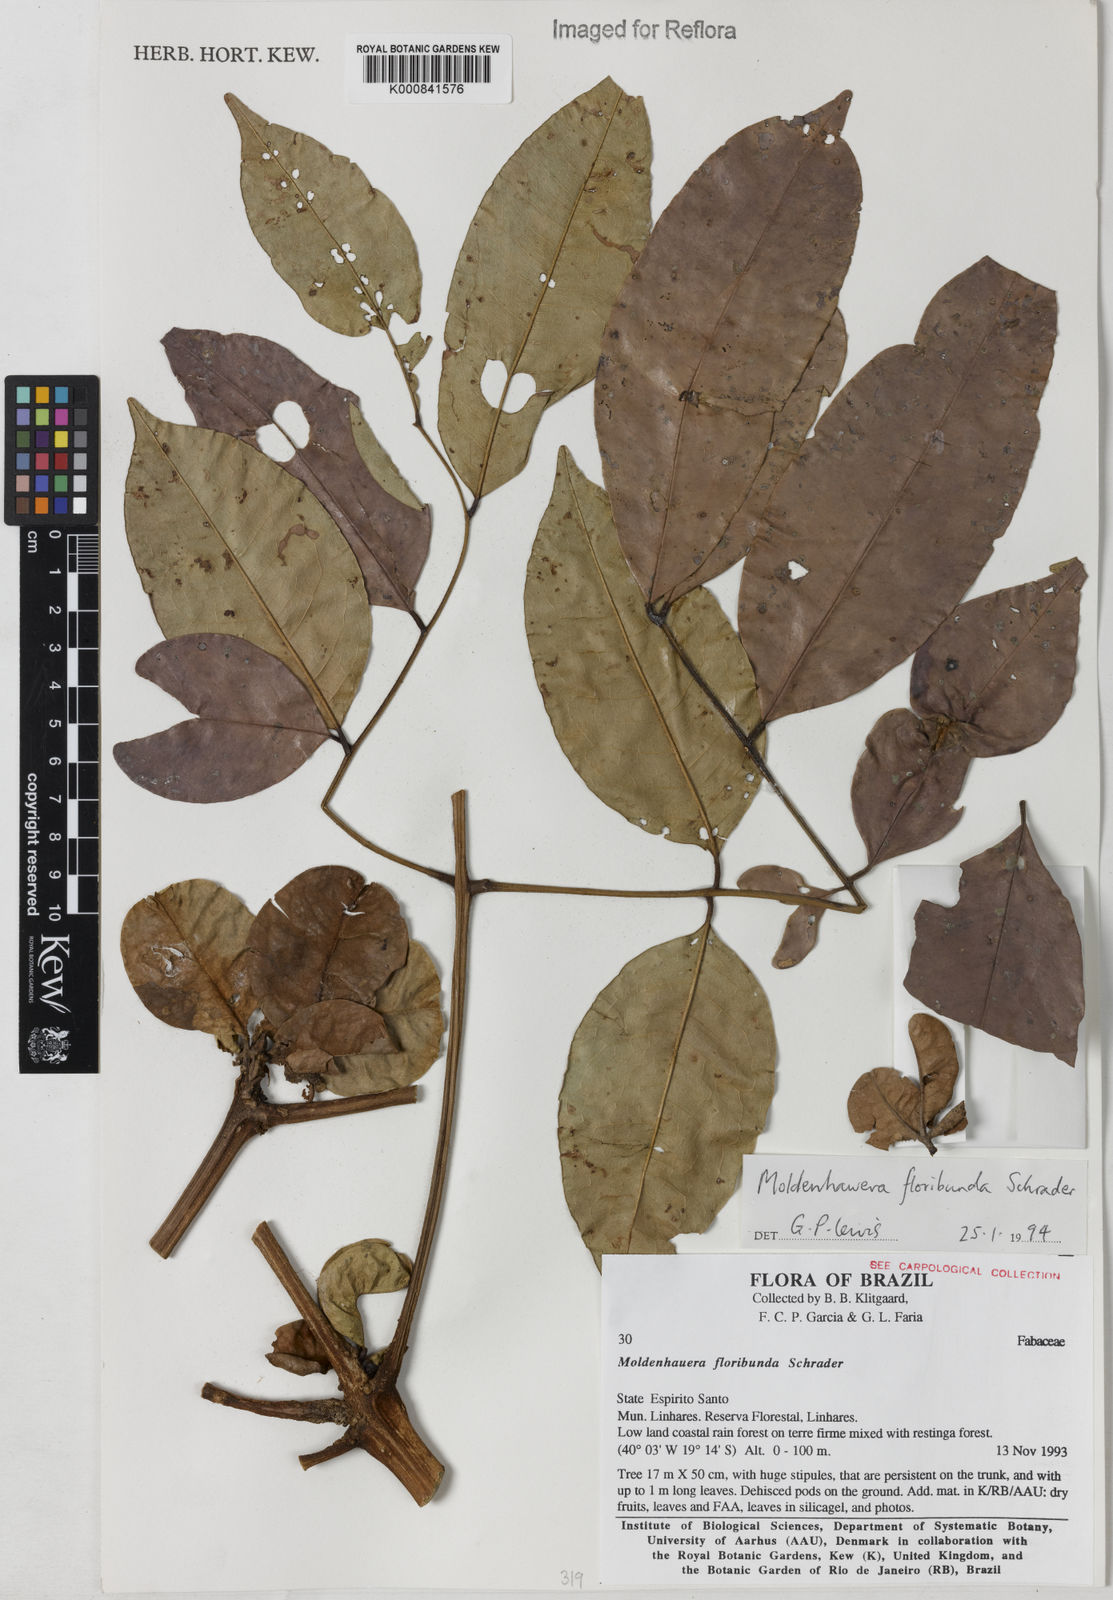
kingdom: Plantae
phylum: Tracheophyta
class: Magnoliopsida
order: Fabales
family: Fabaceae
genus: Moldenhawera
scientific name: Moldenhawera floribunda
